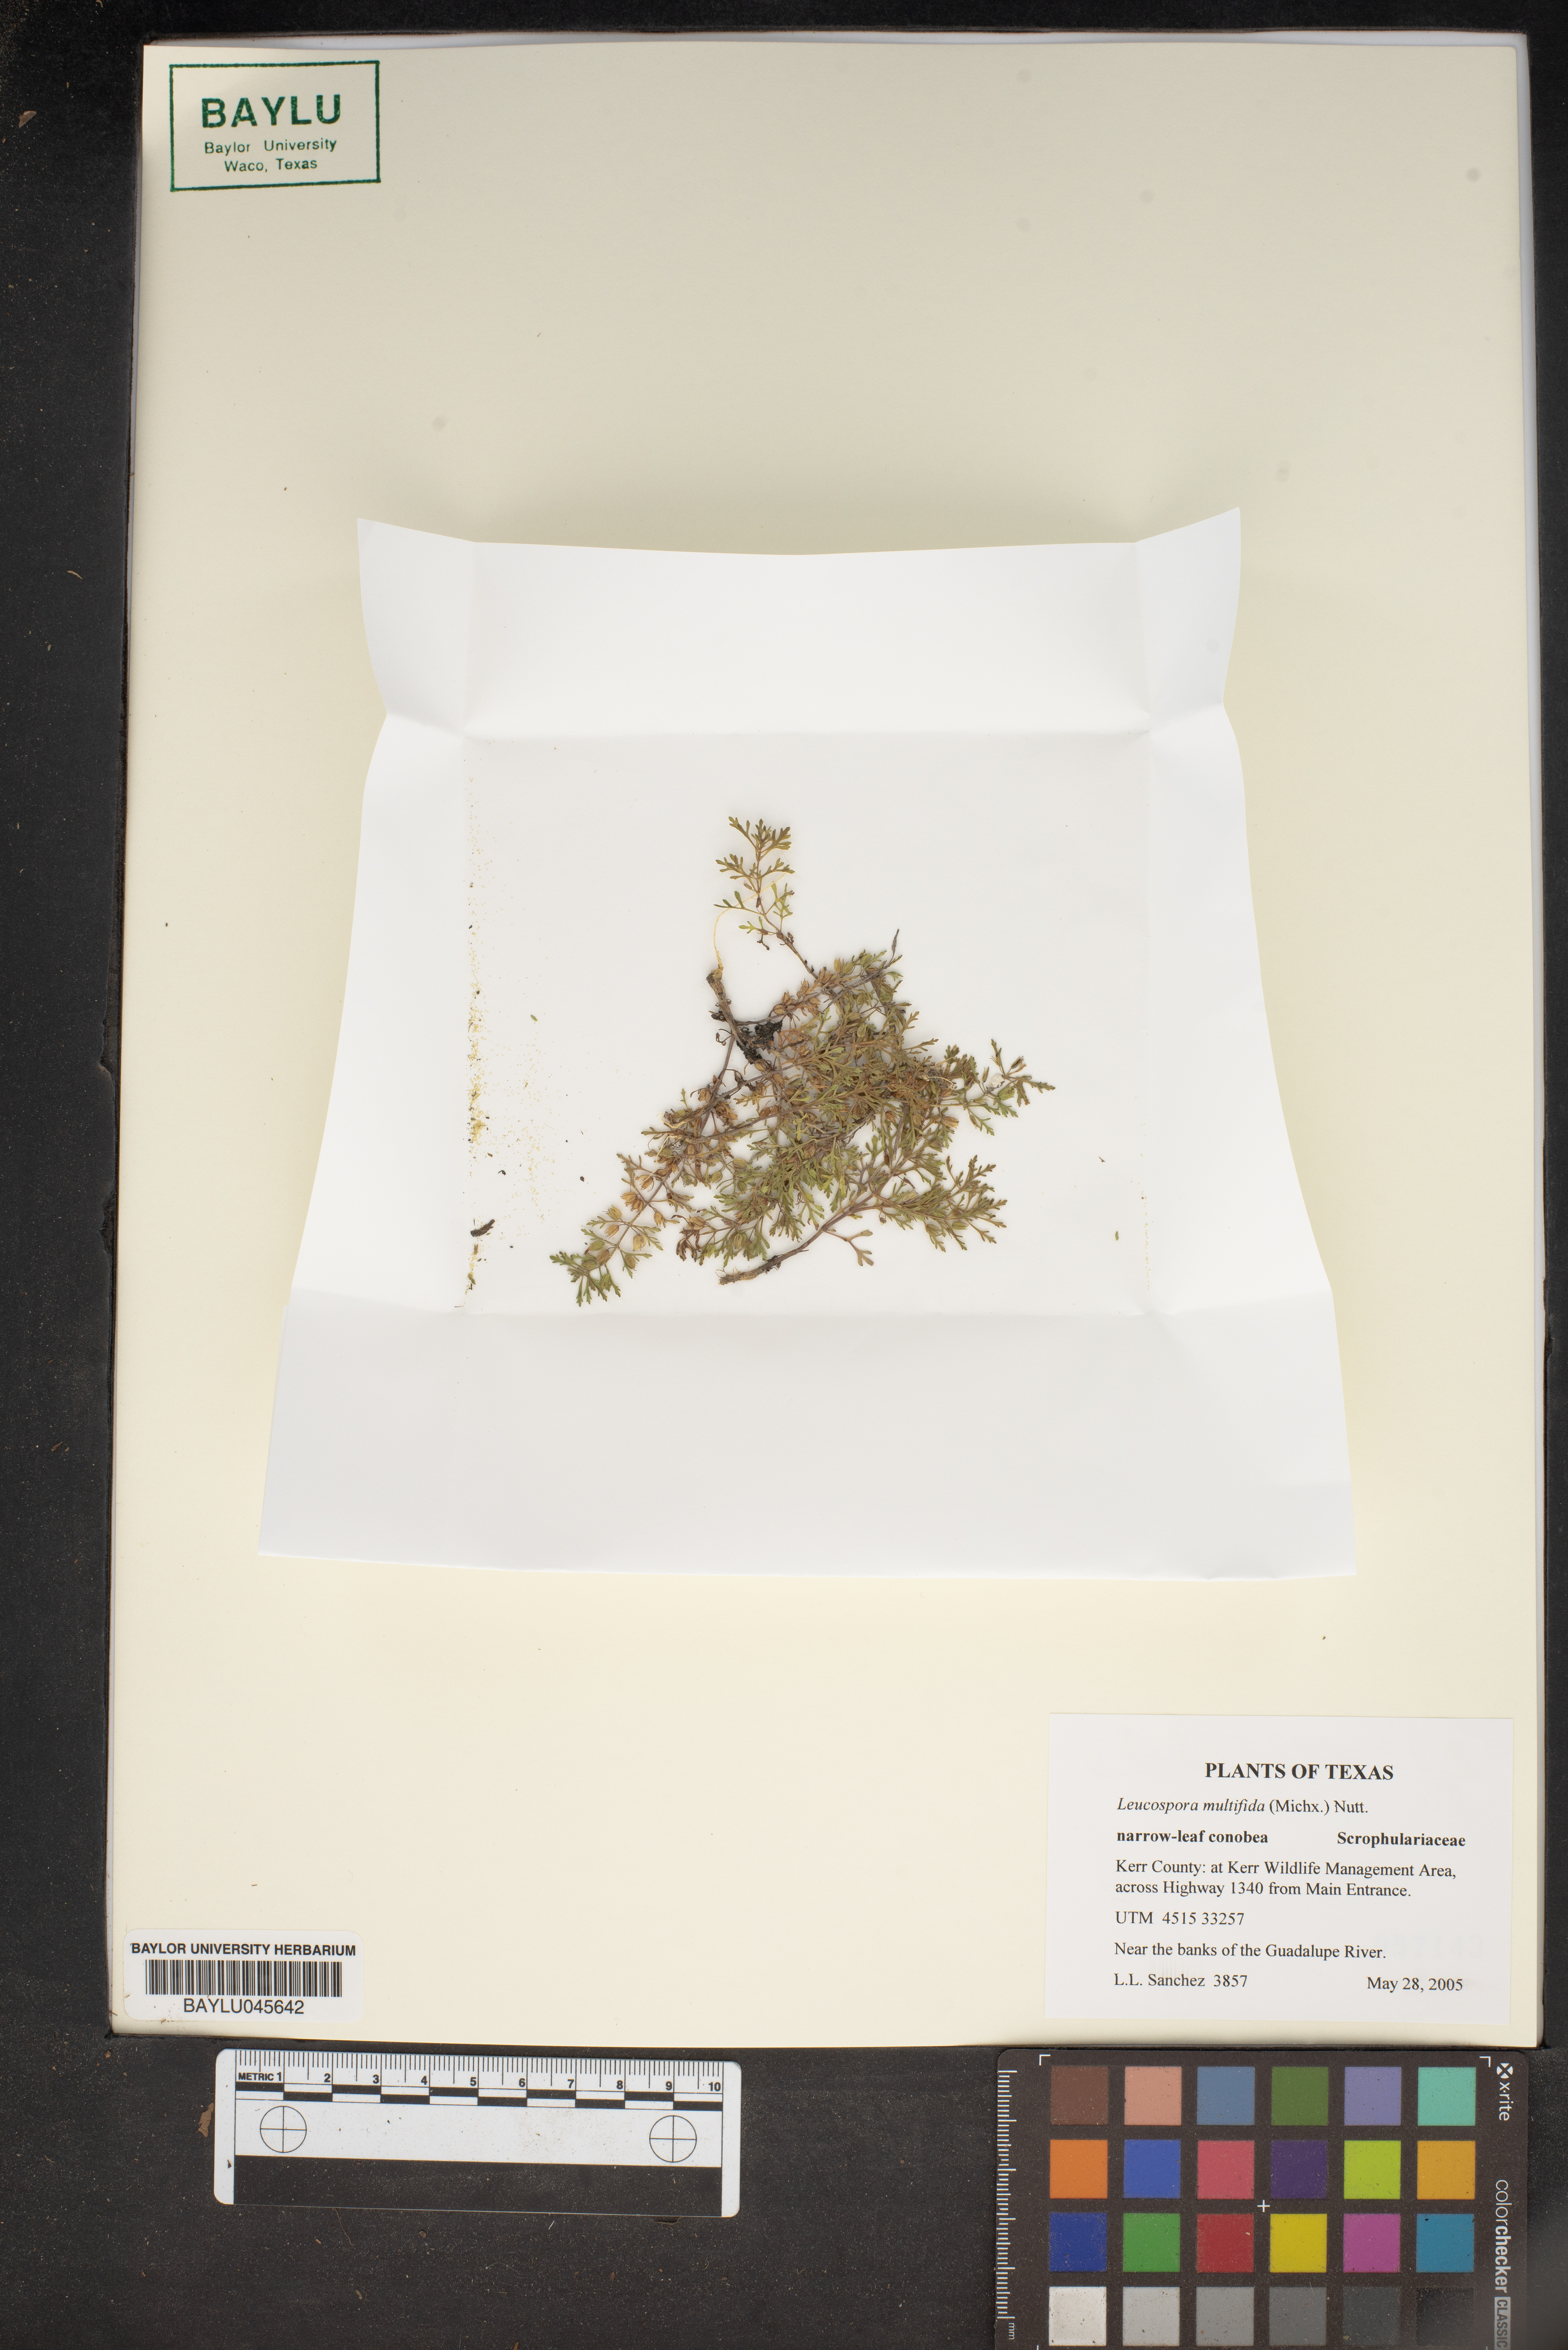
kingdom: Plantae
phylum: Tracheophyta
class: Magnoliopsida
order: Lamiales
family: Plantaginaceae
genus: Leucospora
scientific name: Leucospora multifida
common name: Narrow-leaf paleseed
